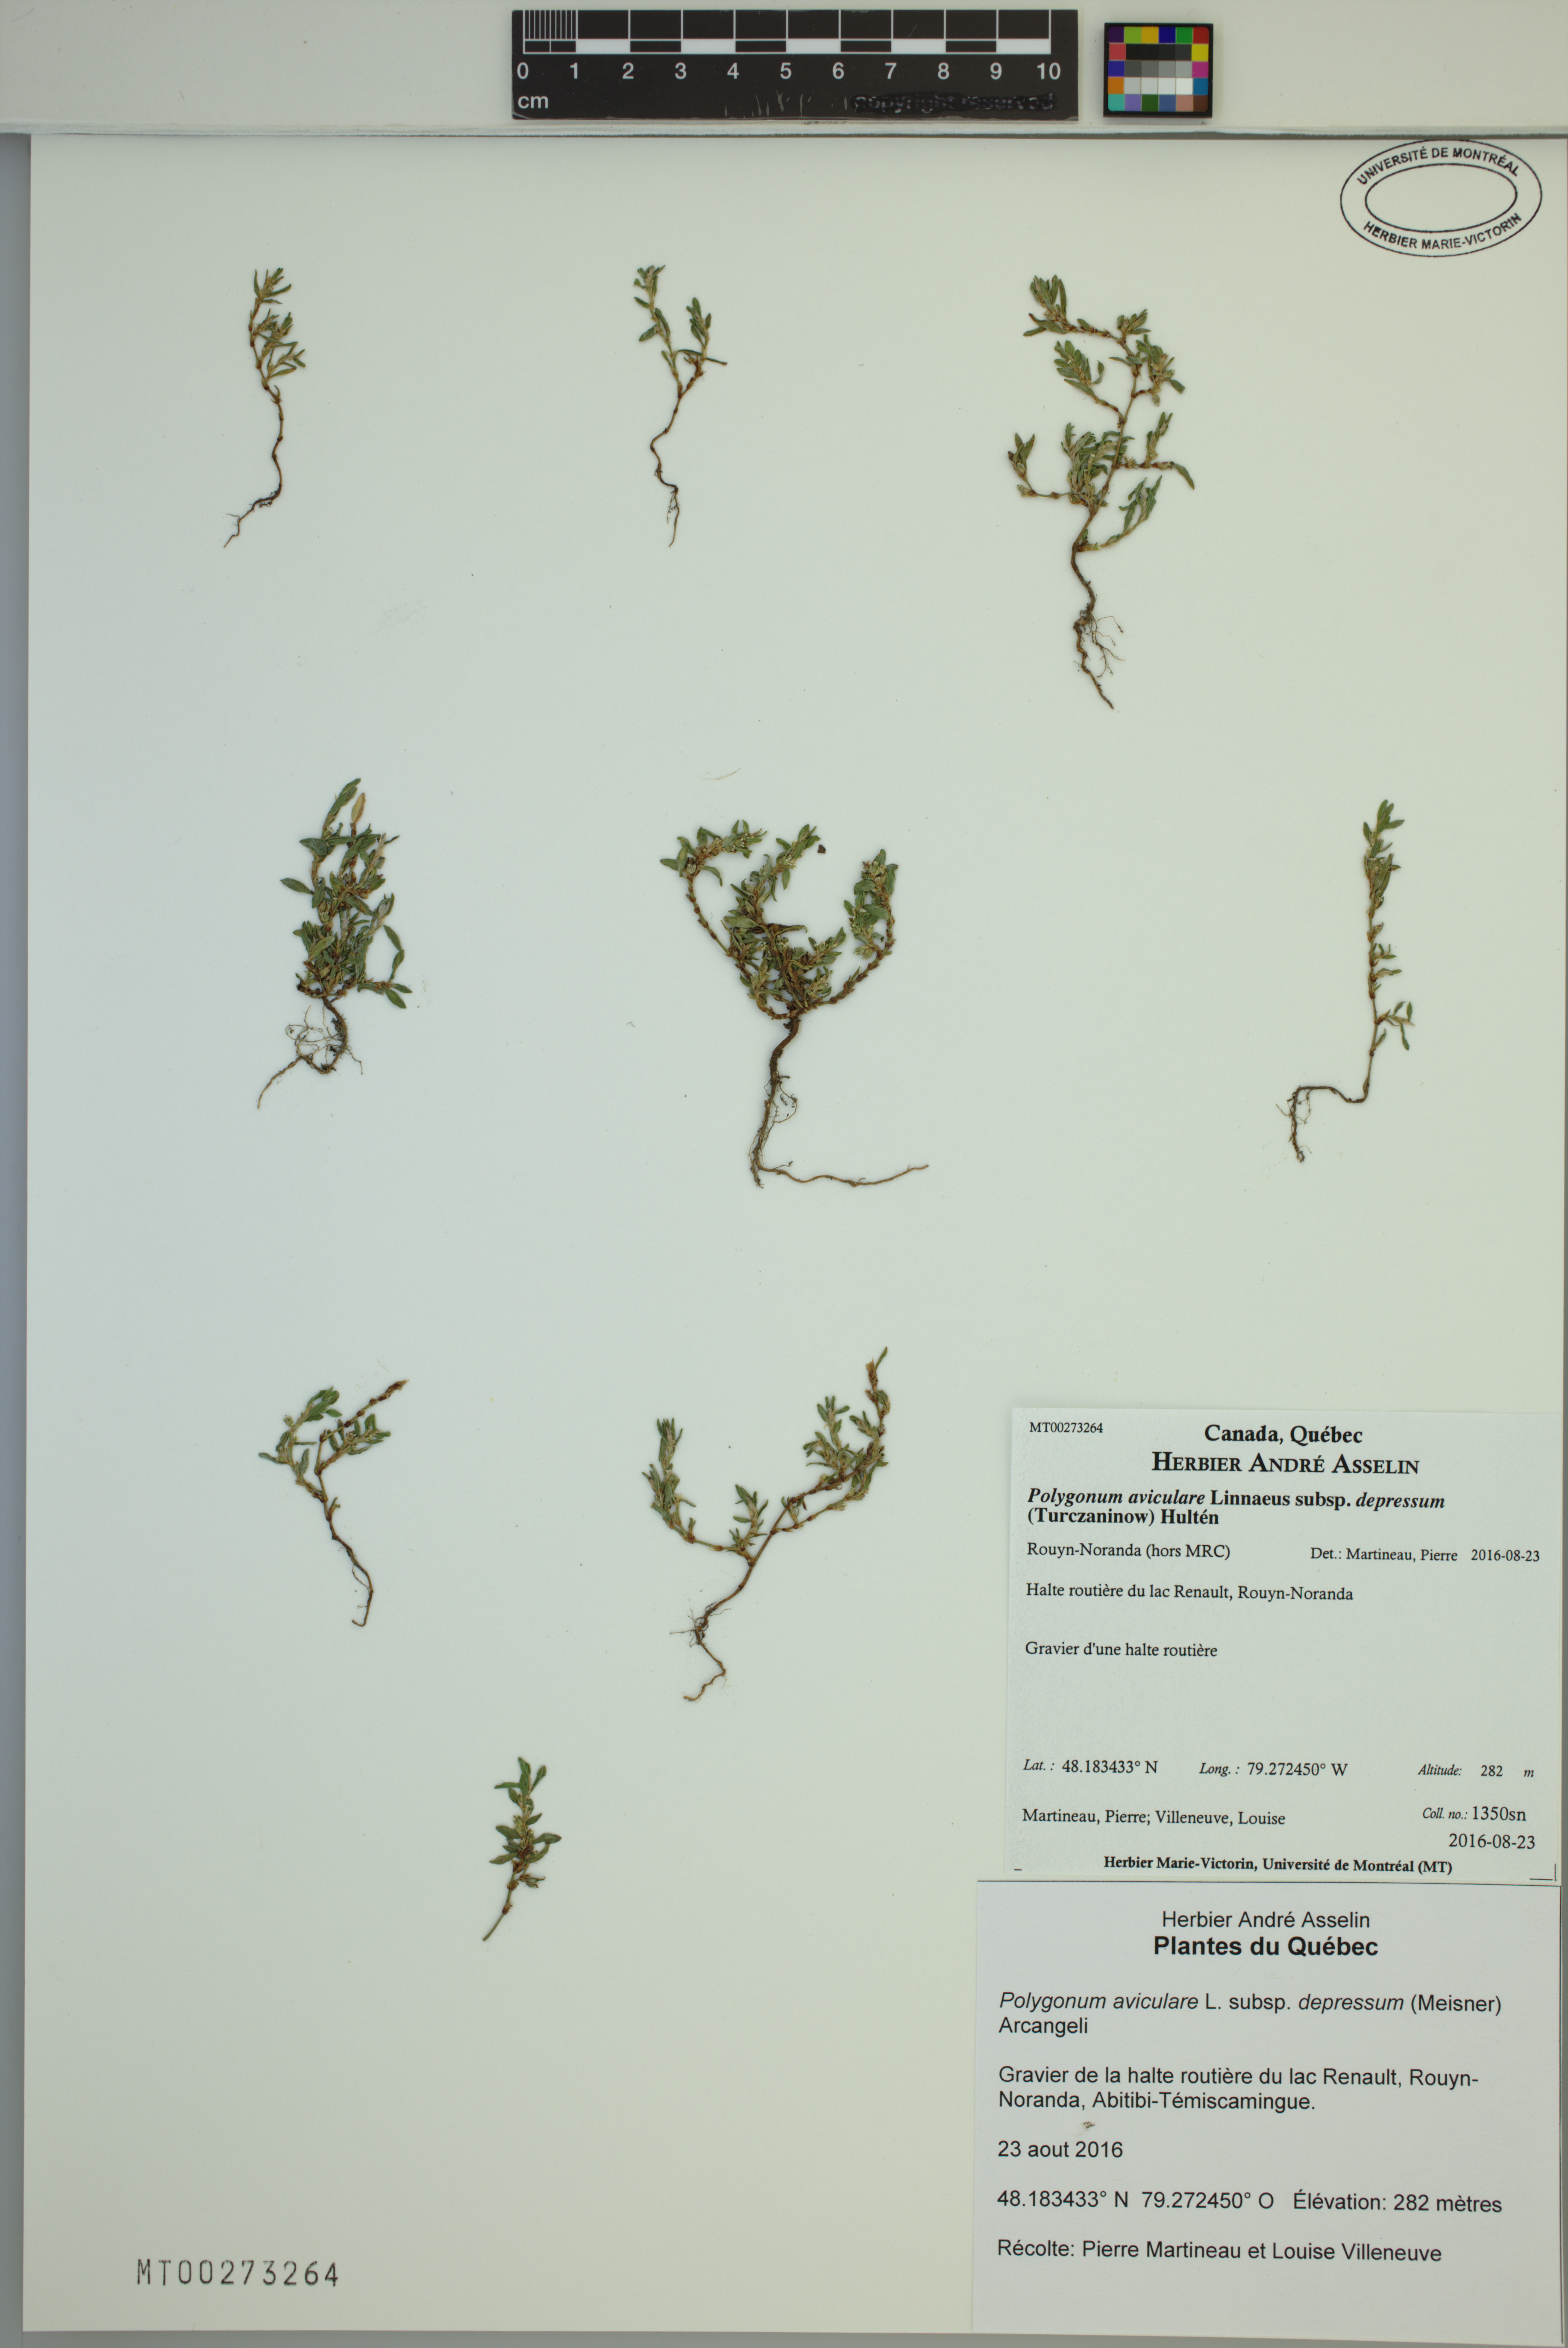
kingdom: Plantae
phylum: Tracheophyta
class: Magnoliopsida
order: Caryophyllales
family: Polygonaceae
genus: Polygonum
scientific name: Polygonum arenastrum
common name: Equal-leaved knotgrass
